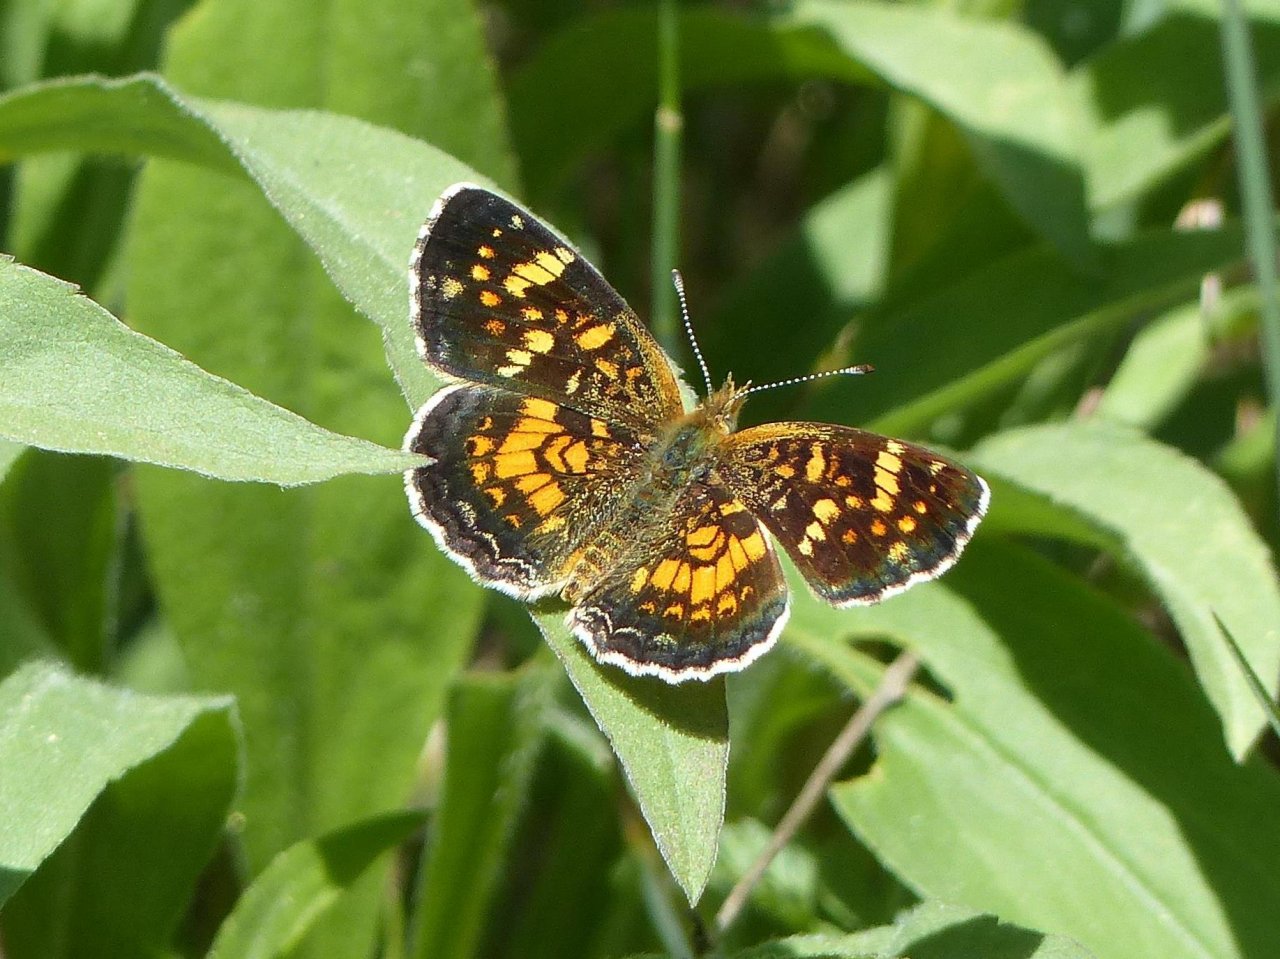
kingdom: Animalia
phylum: Arthropoda
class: Insecta
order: Lepidoptera
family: Nymphalidae
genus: Phyciodes
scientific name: Phyciodes batesii
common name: Tawny Crescent
